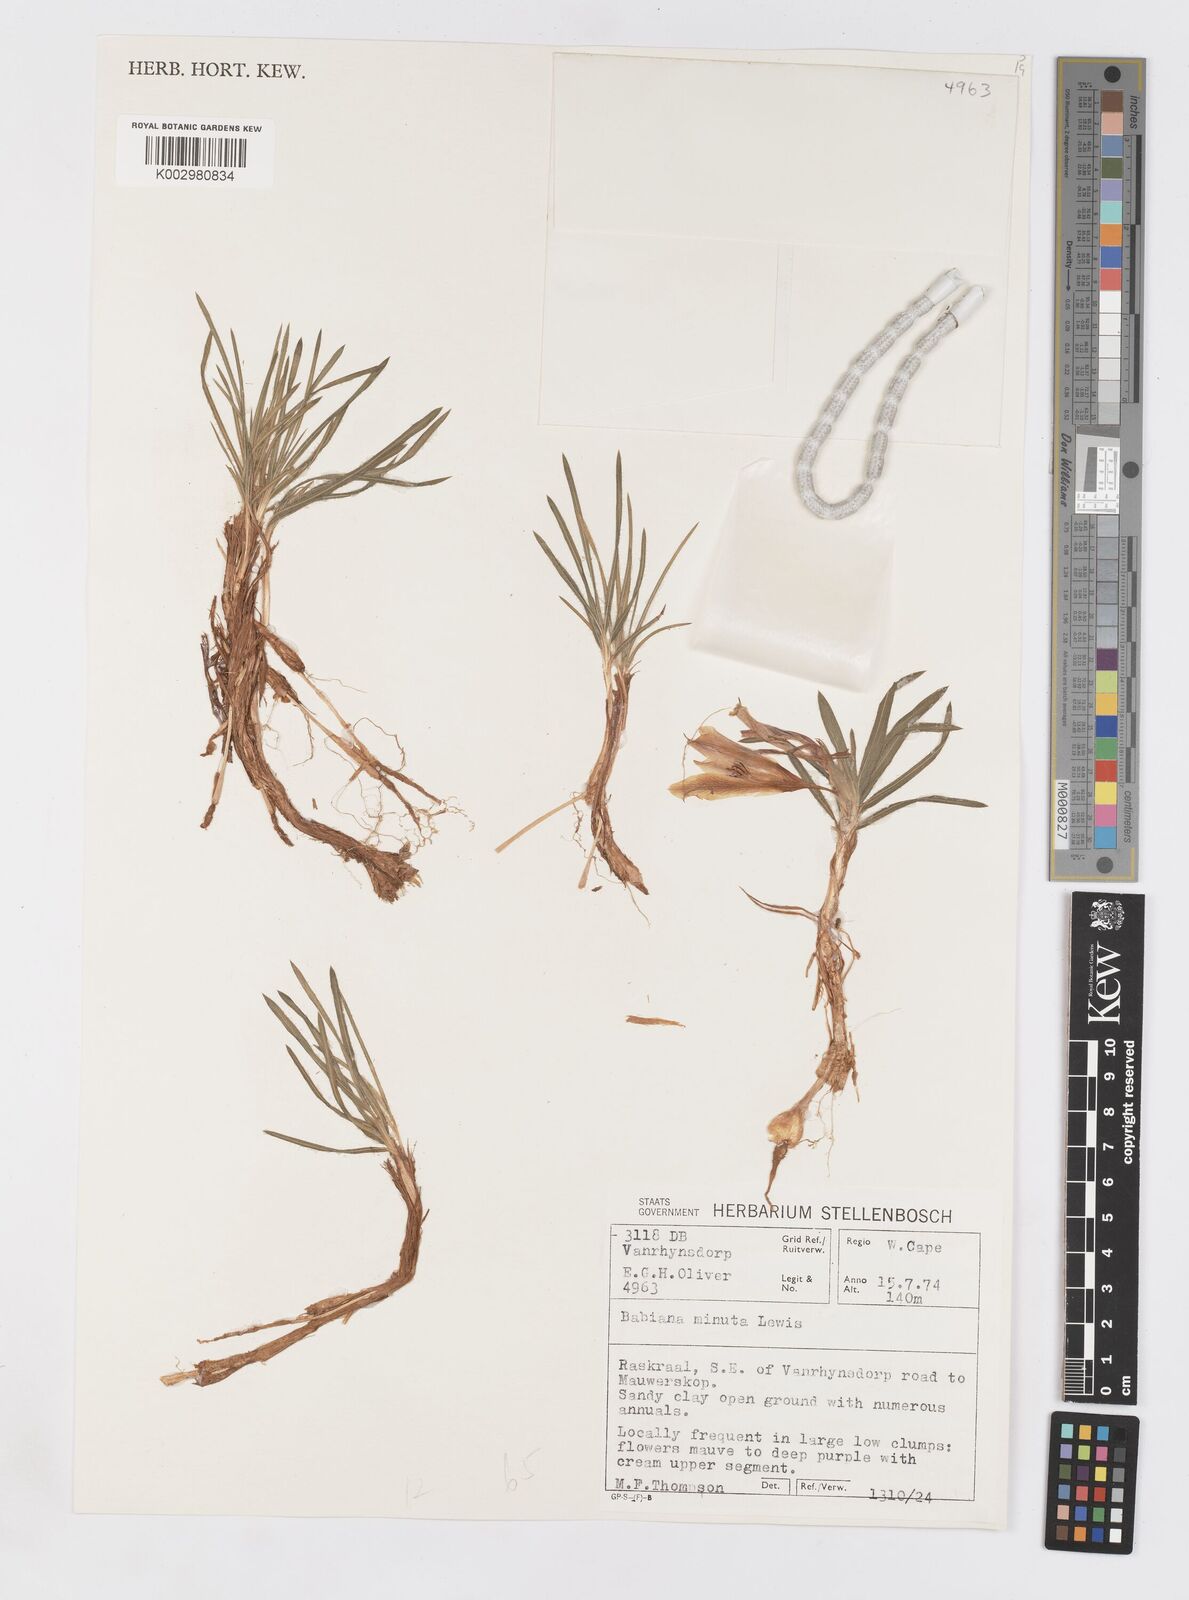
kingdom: Plantae
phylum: Tracheophyta
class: Liliopsida
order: Asparagales
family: Iridaceae
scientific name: Iridaceae
